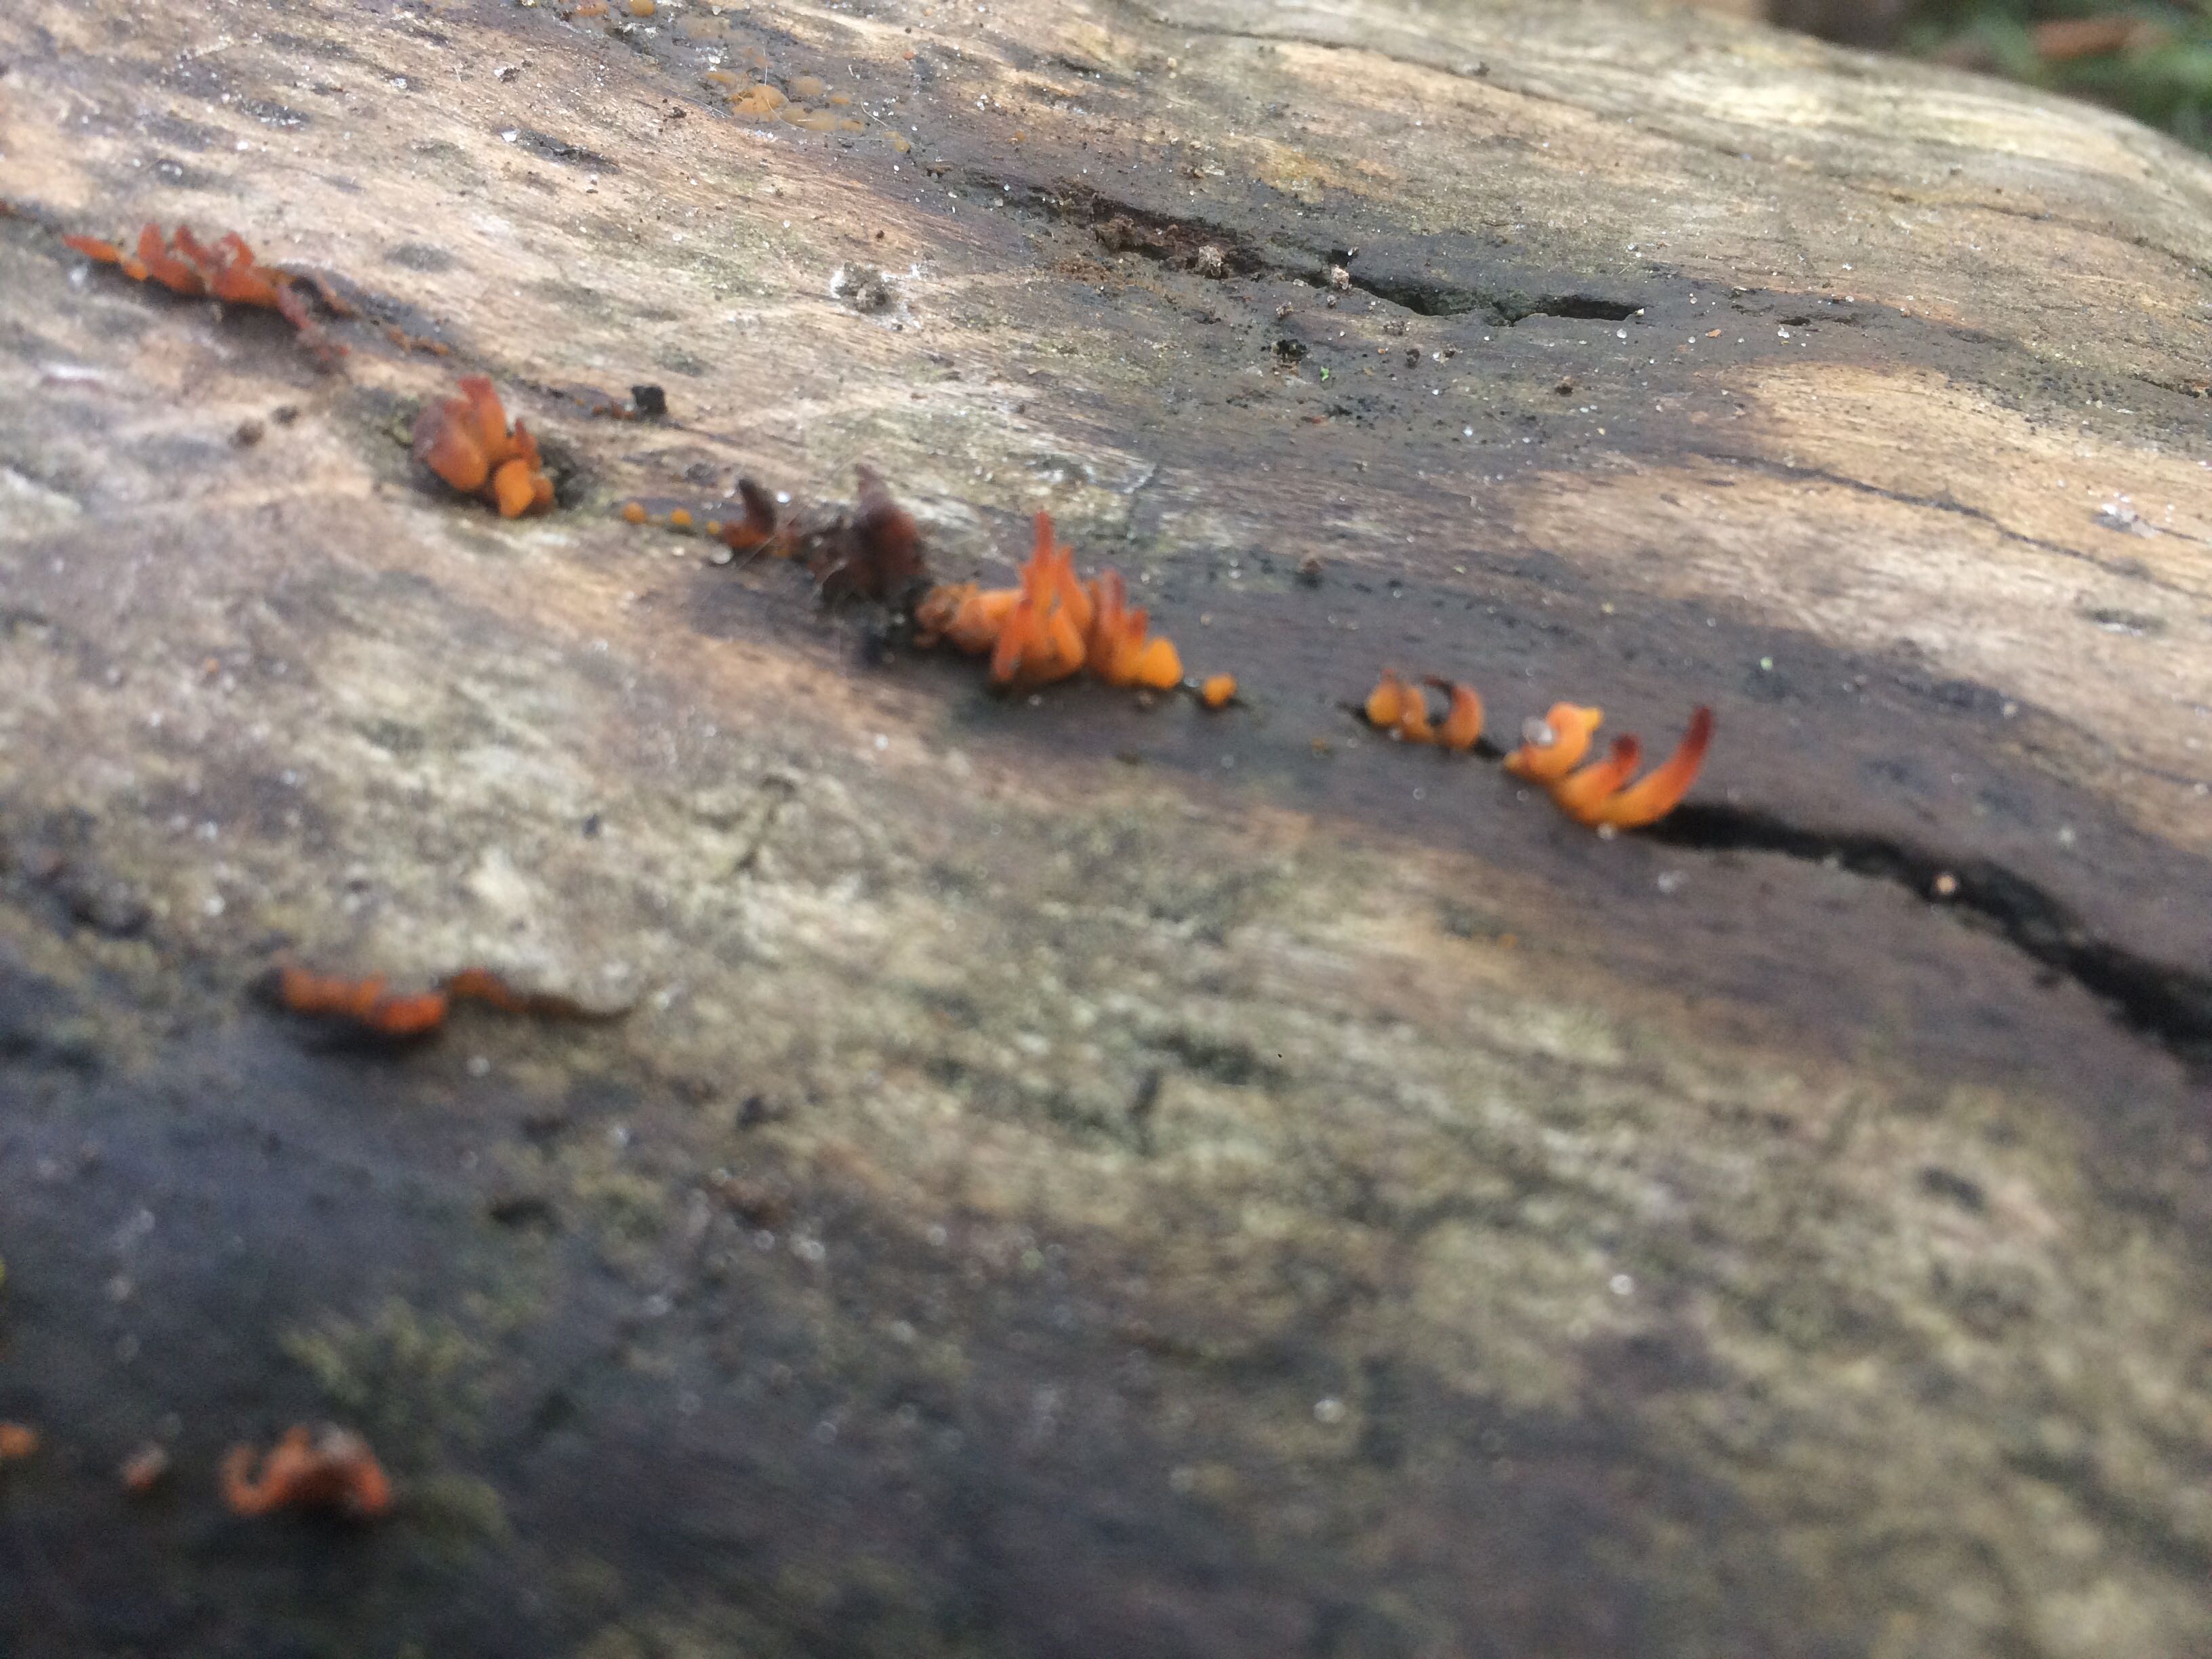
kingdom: Fungi
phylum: Basidiomycota
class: Dacrymycetes
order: Dacrymycetales
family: Dacrymycetaceae
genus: Calocera
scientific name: Calocera cornea
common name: liden guldgaffel
